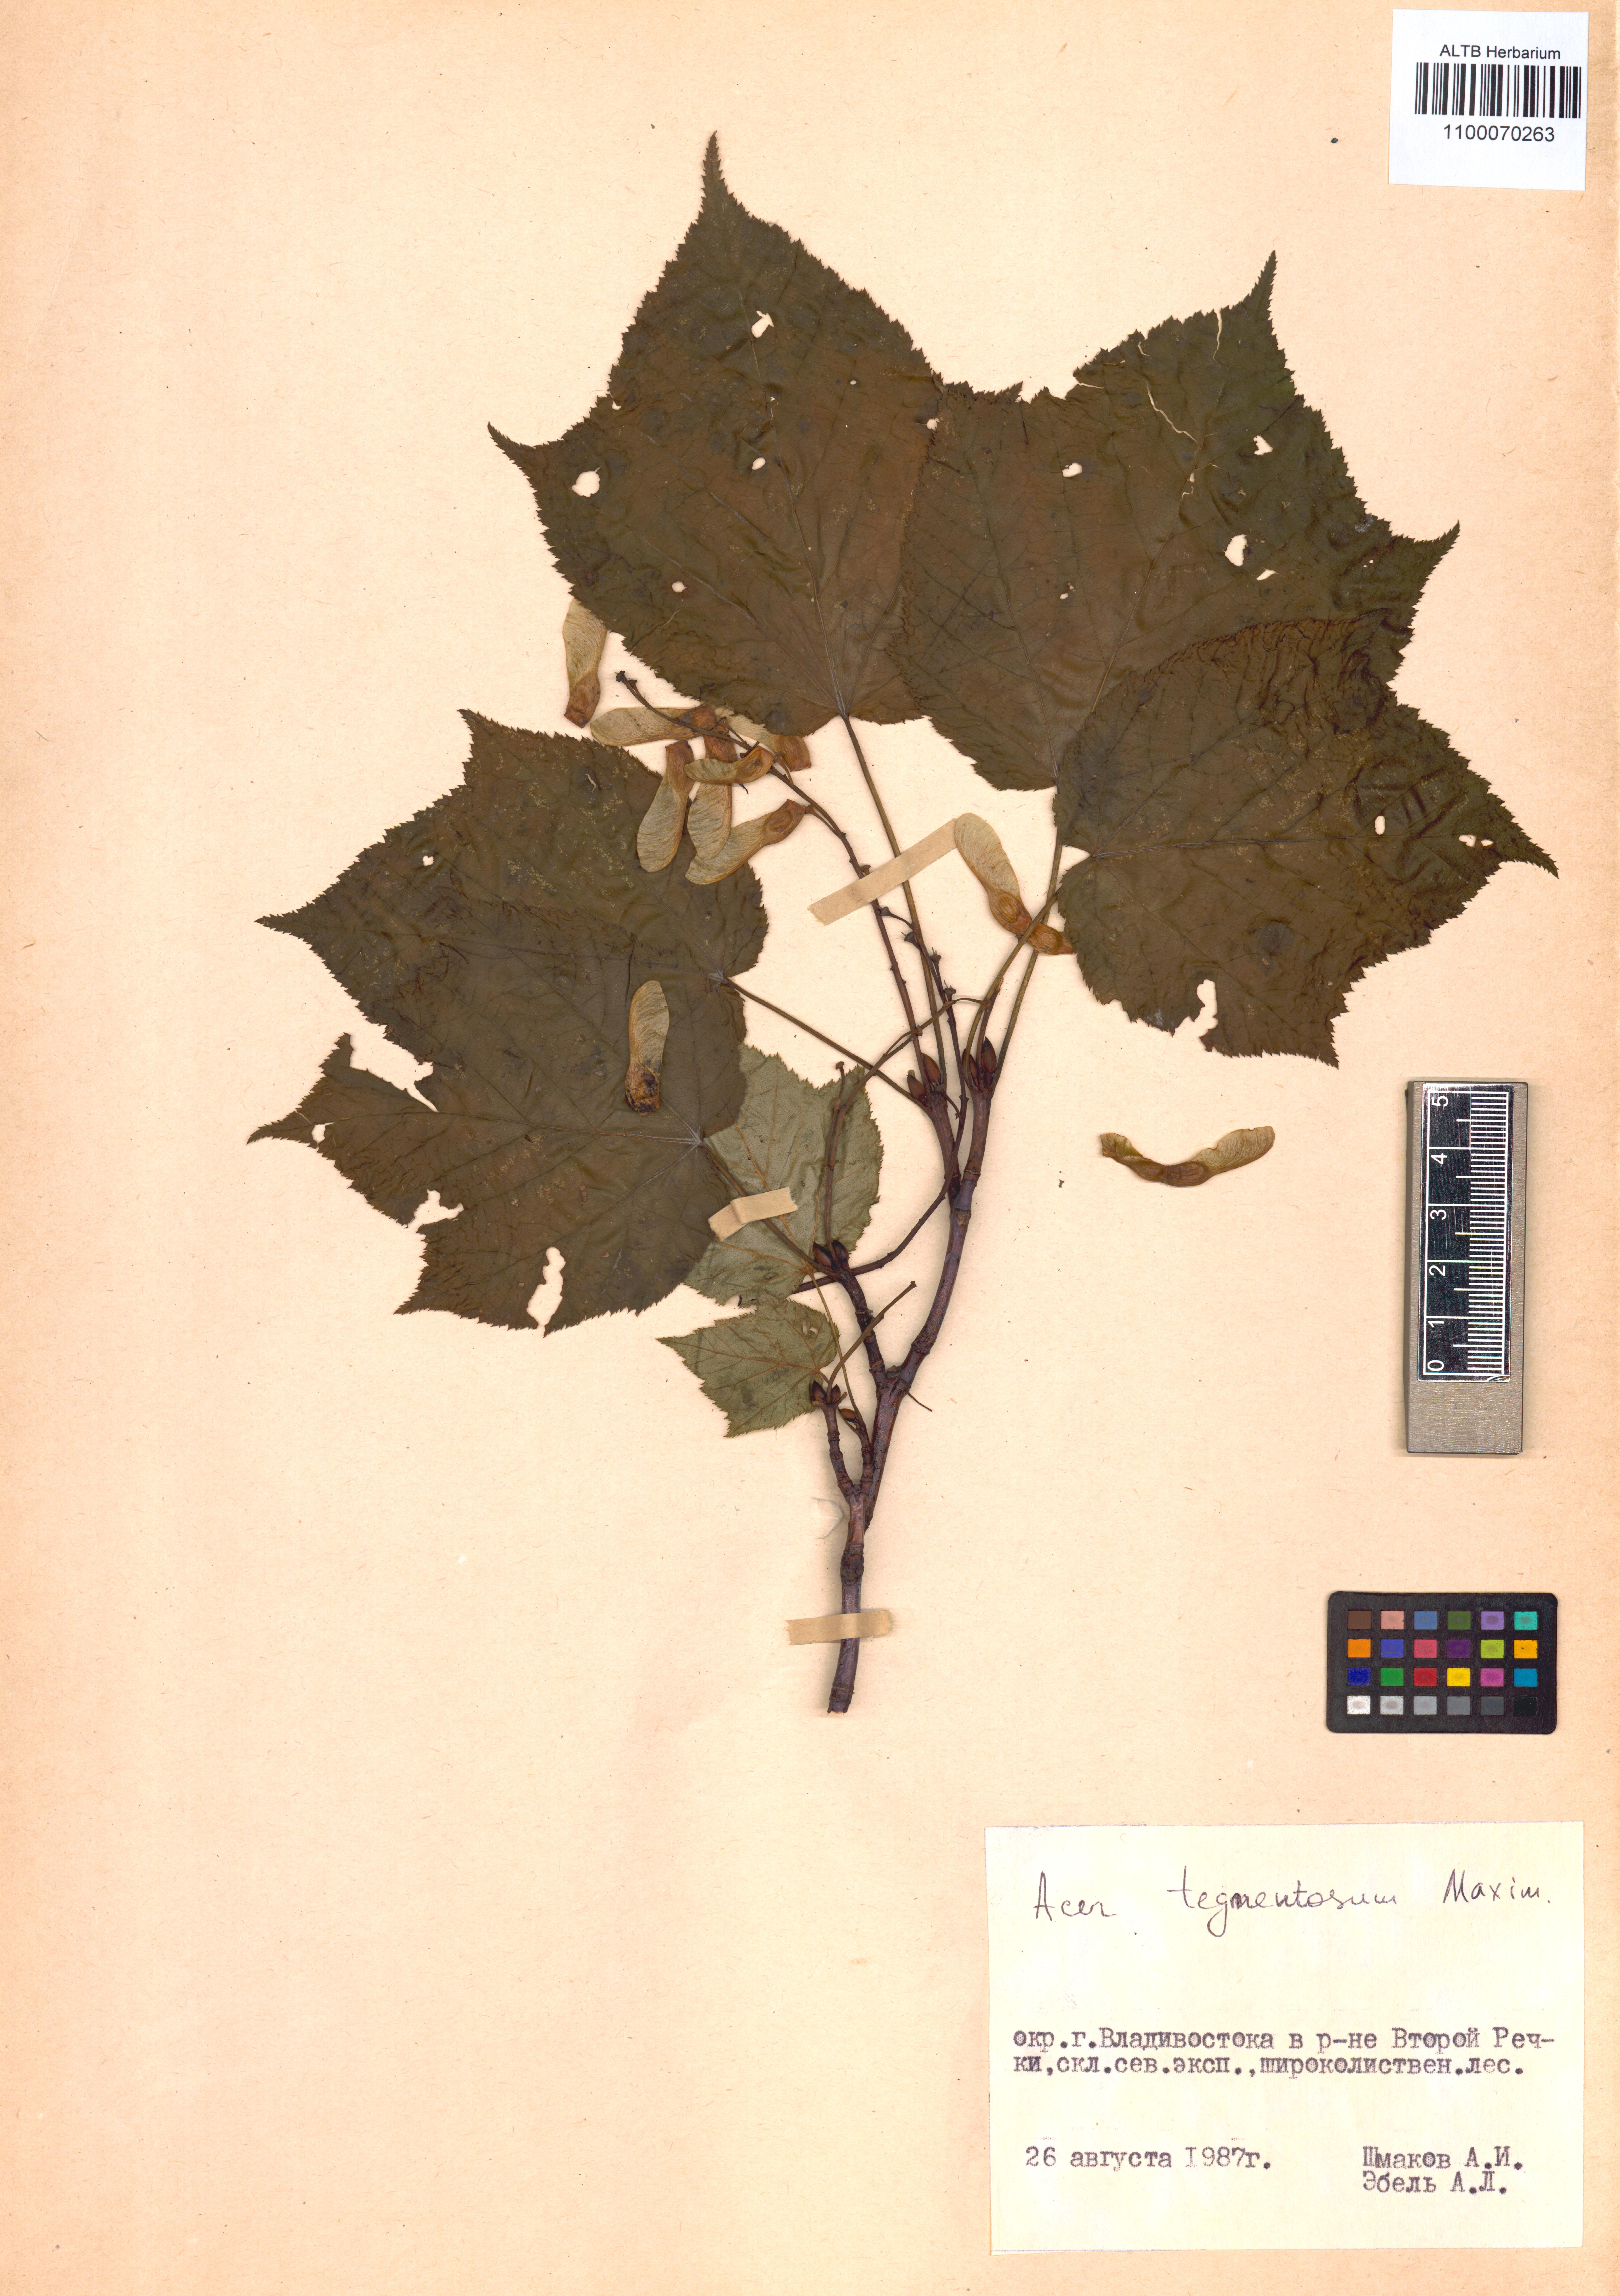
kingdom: Plantae
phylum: Tracheophyta
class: Magnoliopsida
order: Sapindales
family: Sapindaceae
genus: Acer
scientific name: Acer tegmentosum
